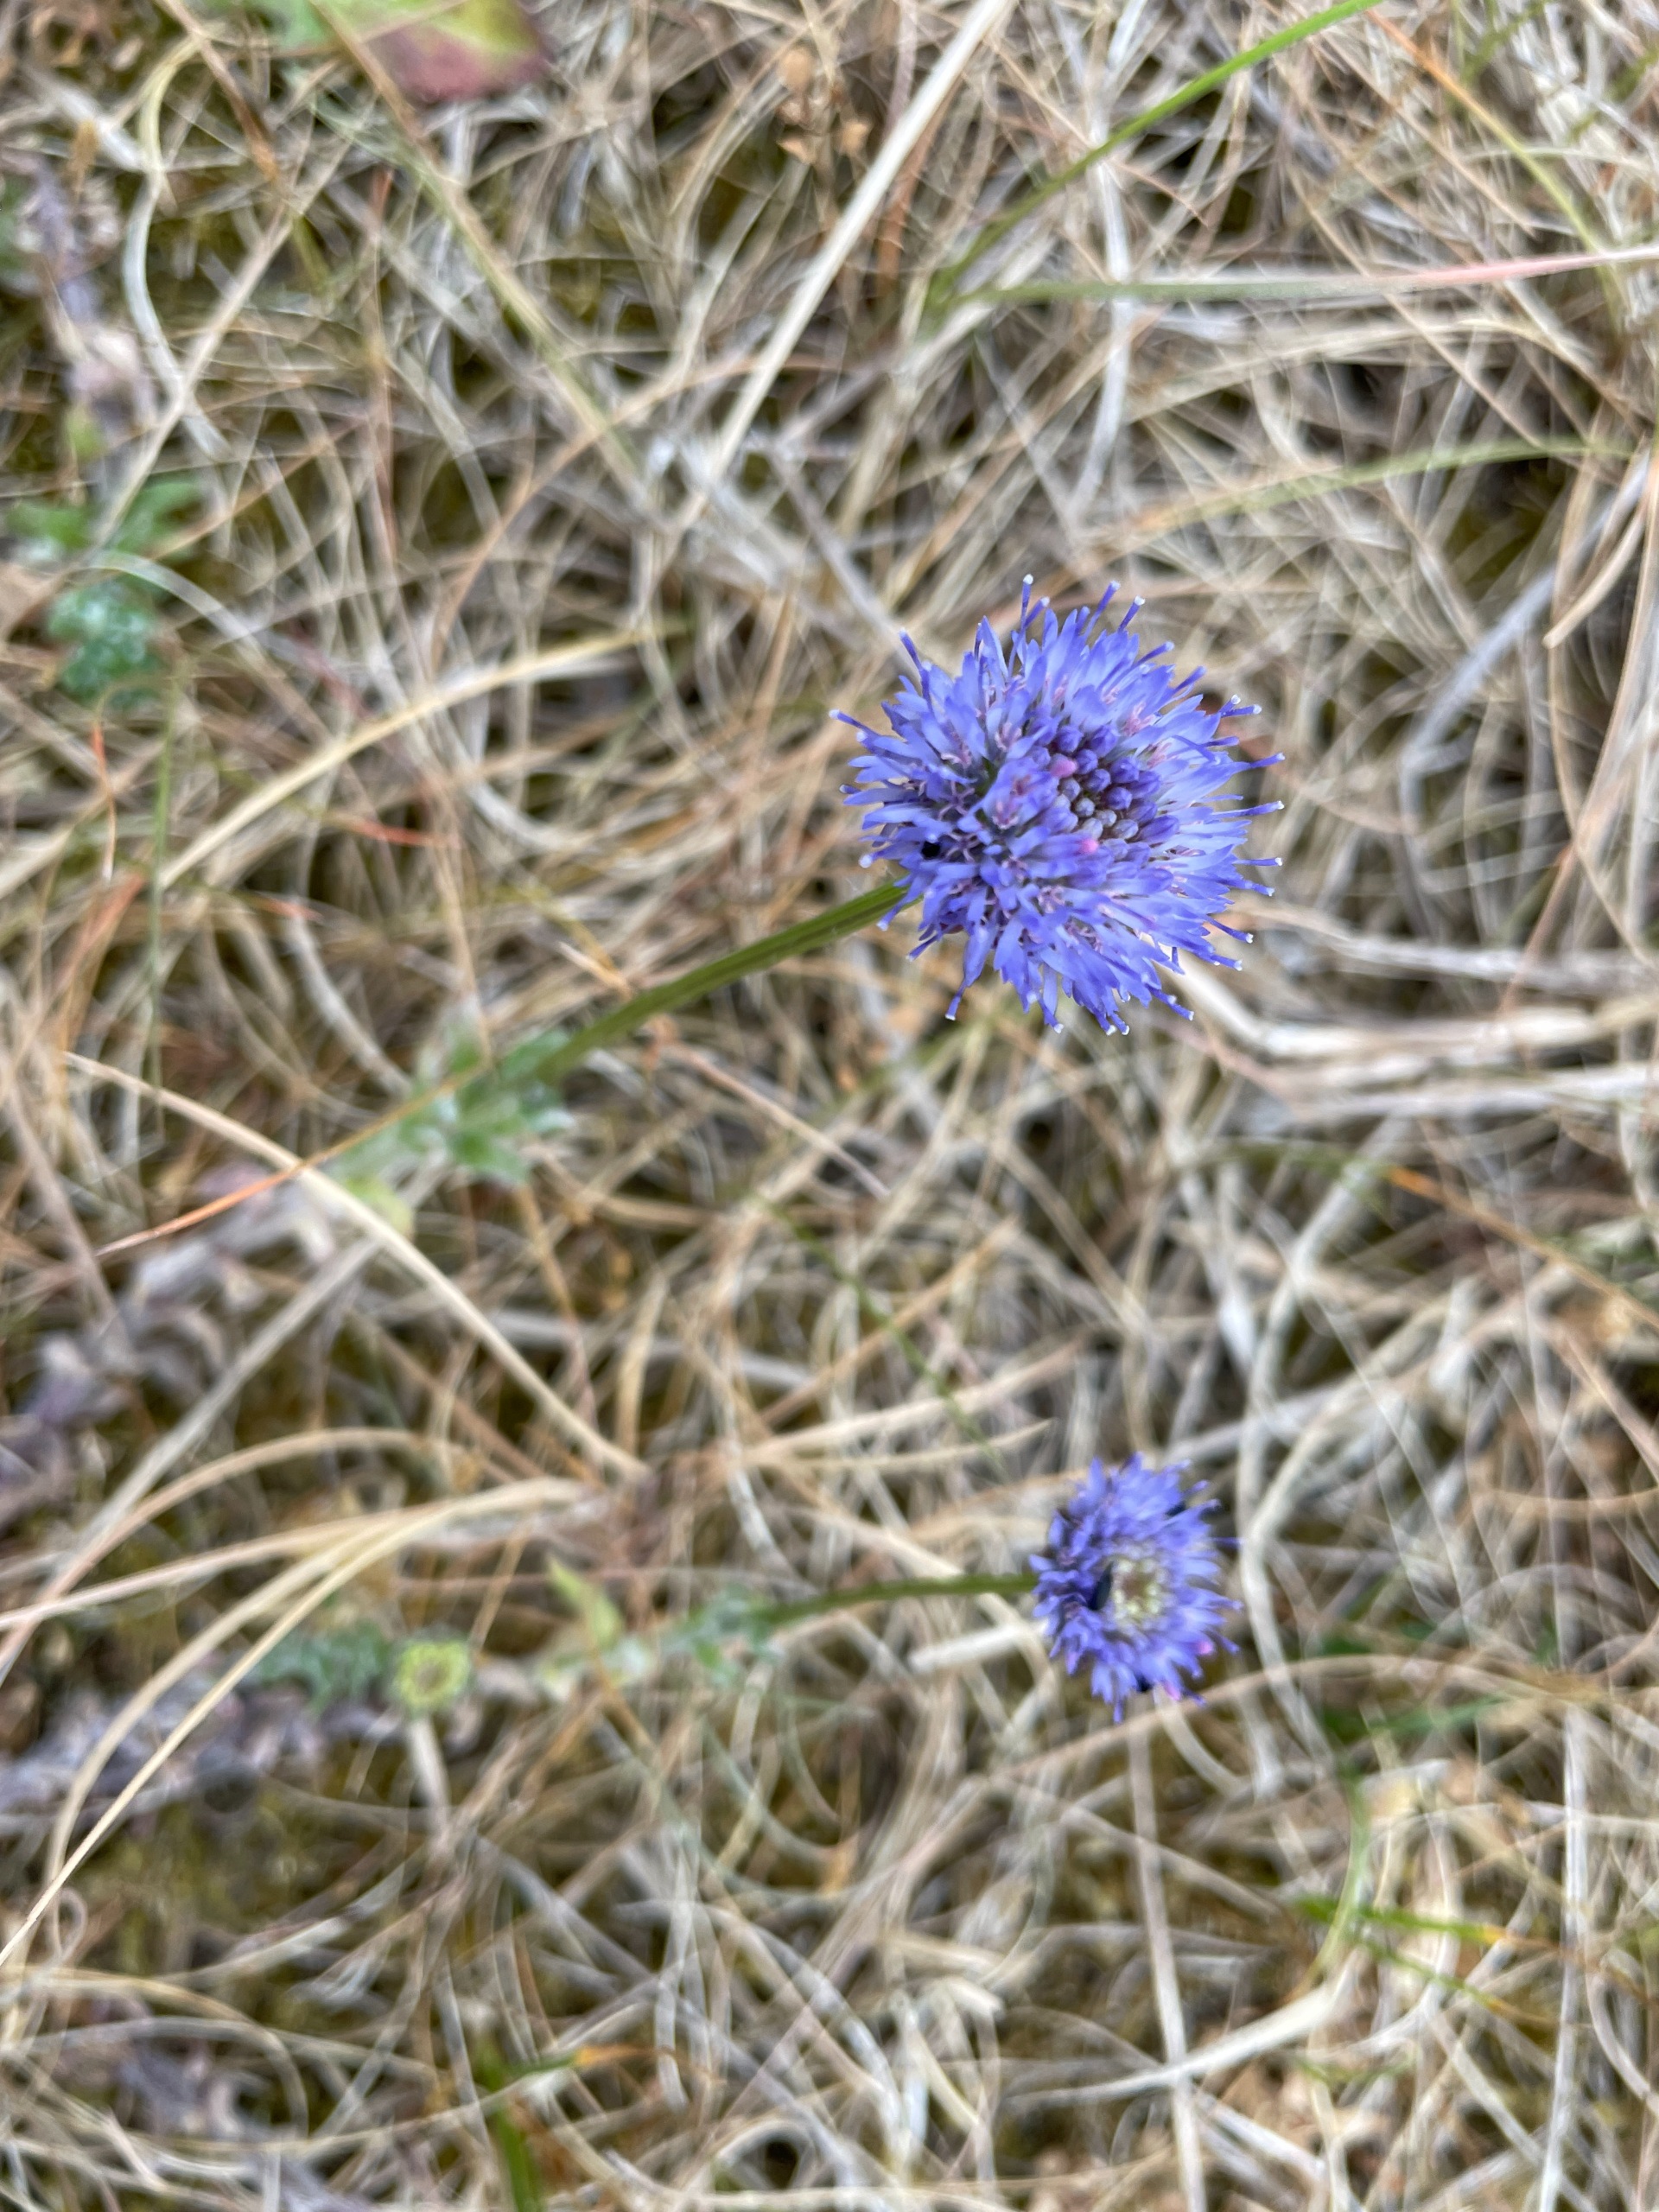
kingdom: Plantae
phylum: Tracheophyta
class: Magnoliopsida
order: Asterales
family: Campanulaceae
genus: Jasione
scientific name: Jasione montana
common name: Blåmunke
